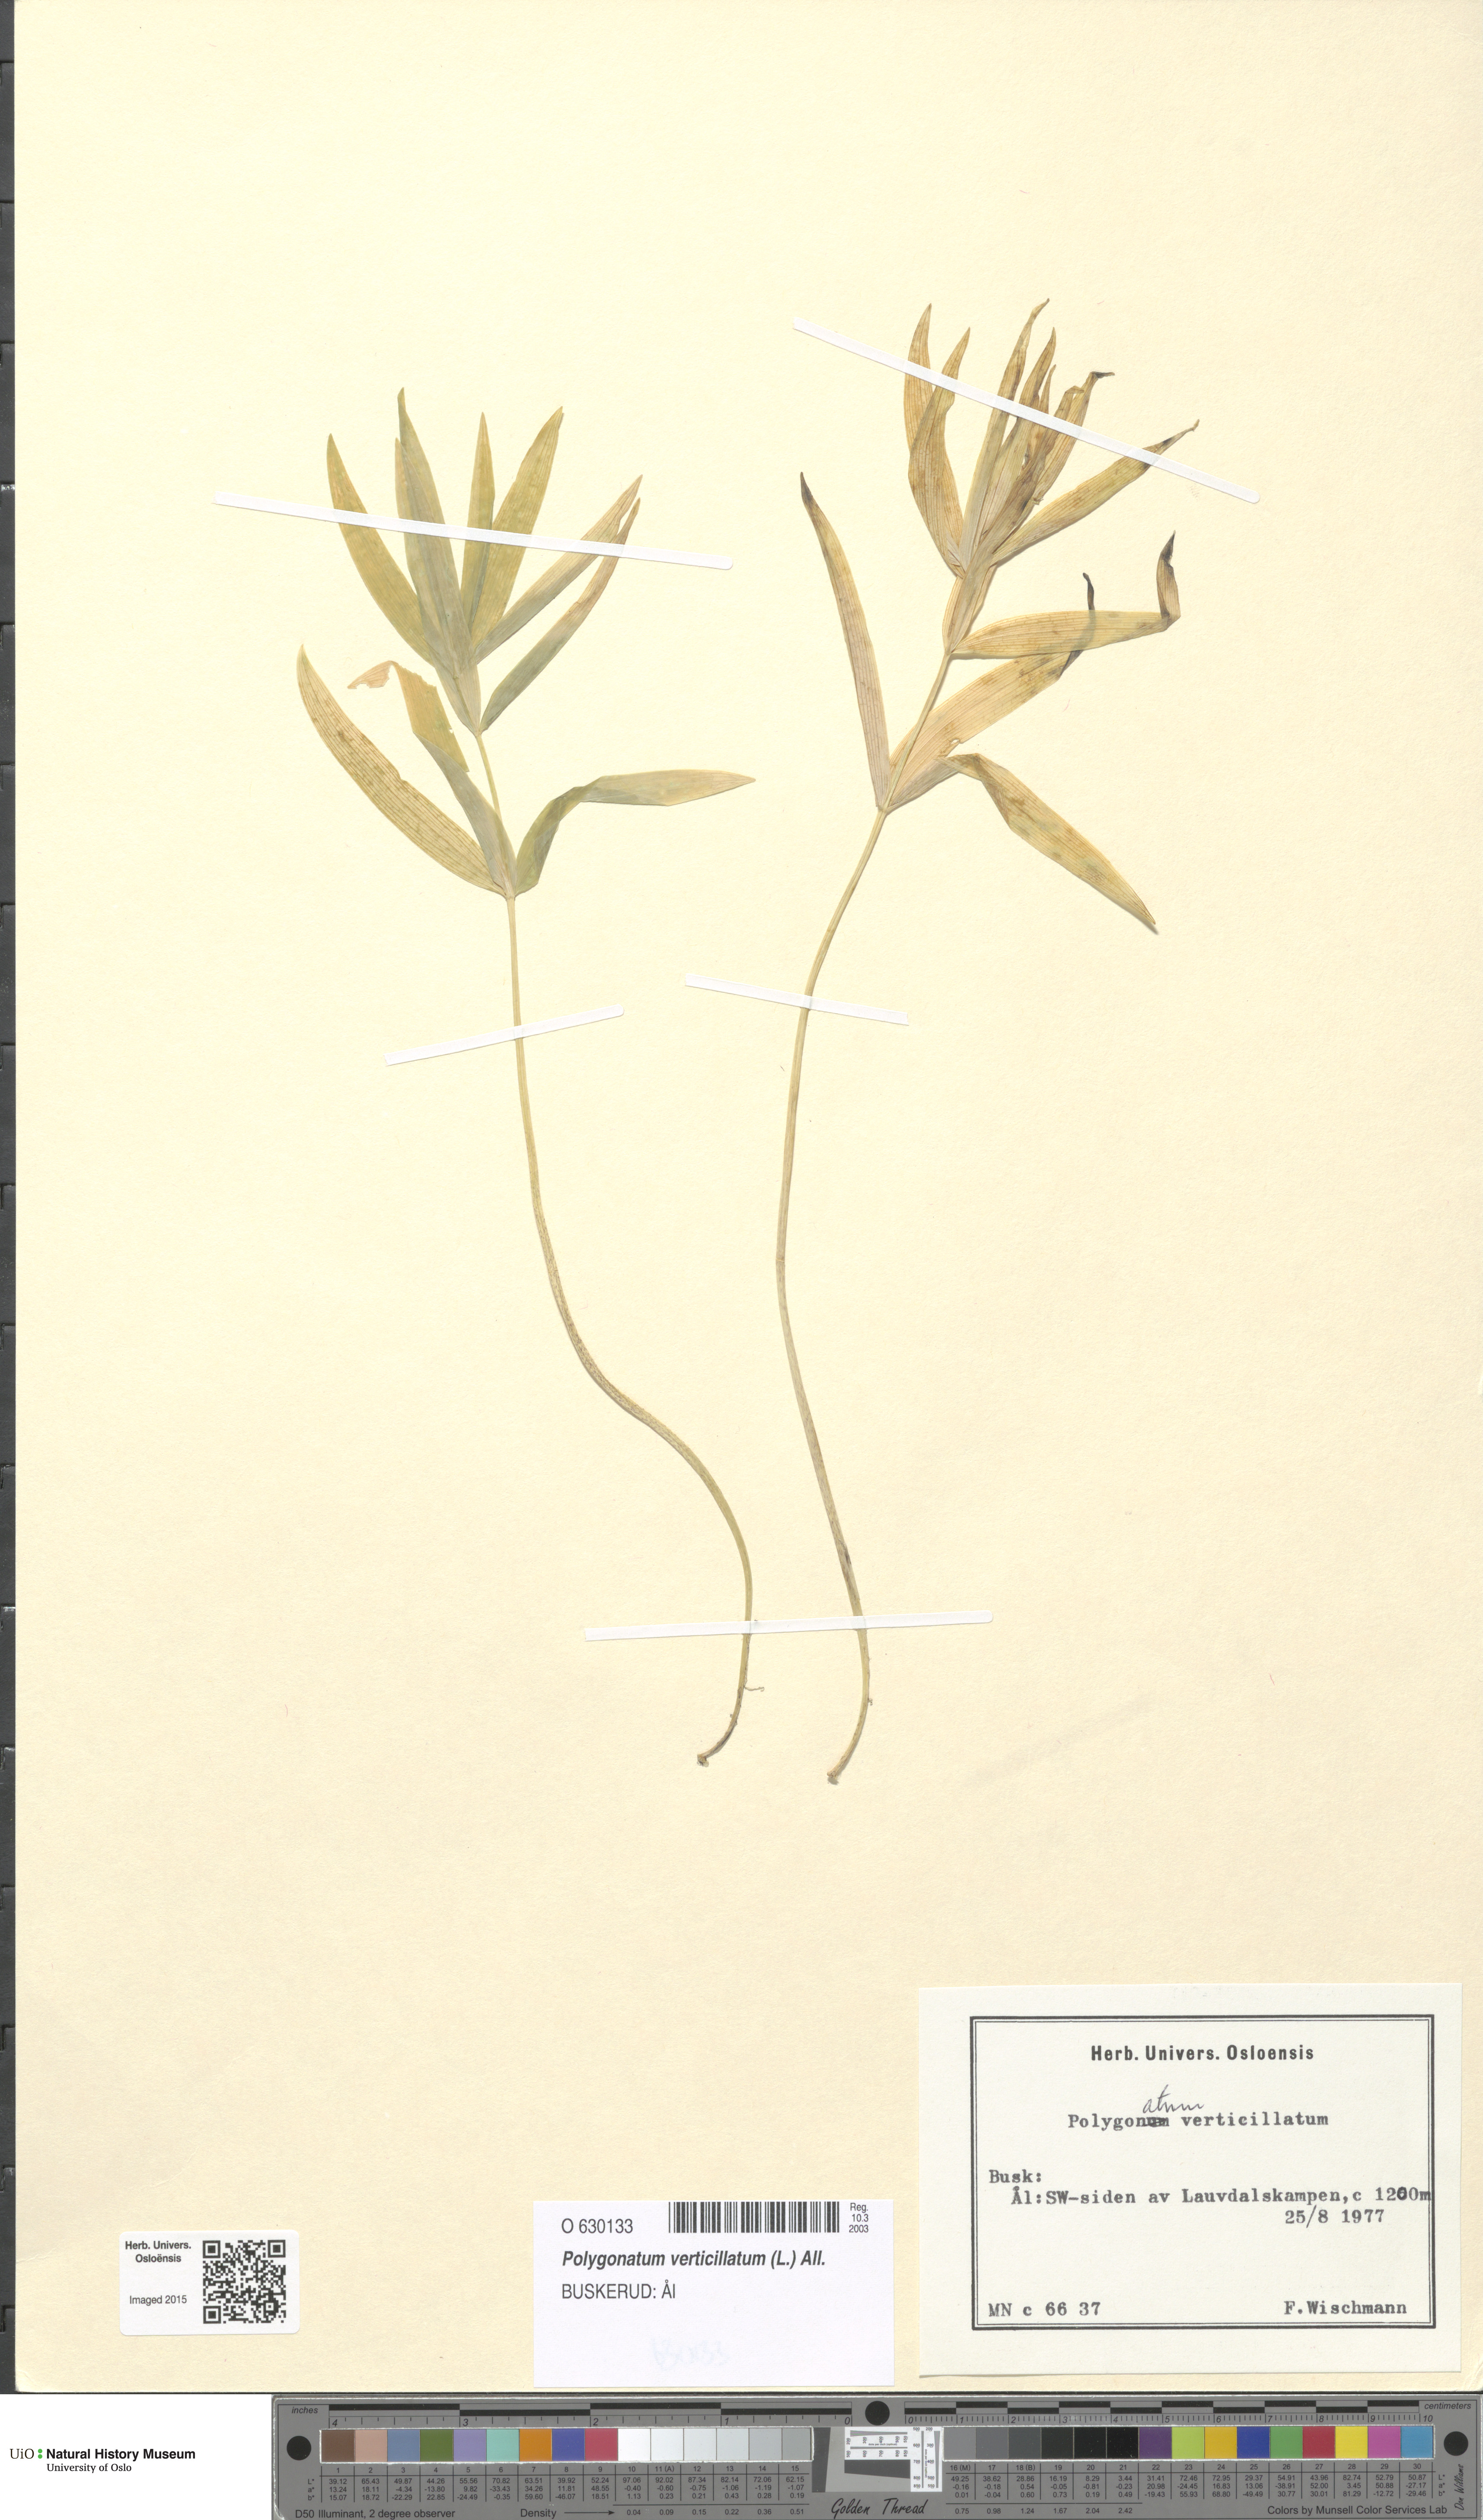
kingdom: Plantae
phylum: Tracheophyta
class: Liliopsida
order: Asparagales
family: Asparagaceae
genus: Polygonatum
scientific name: Polygonatum verticillatum
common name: Whorled solomon's-seal
